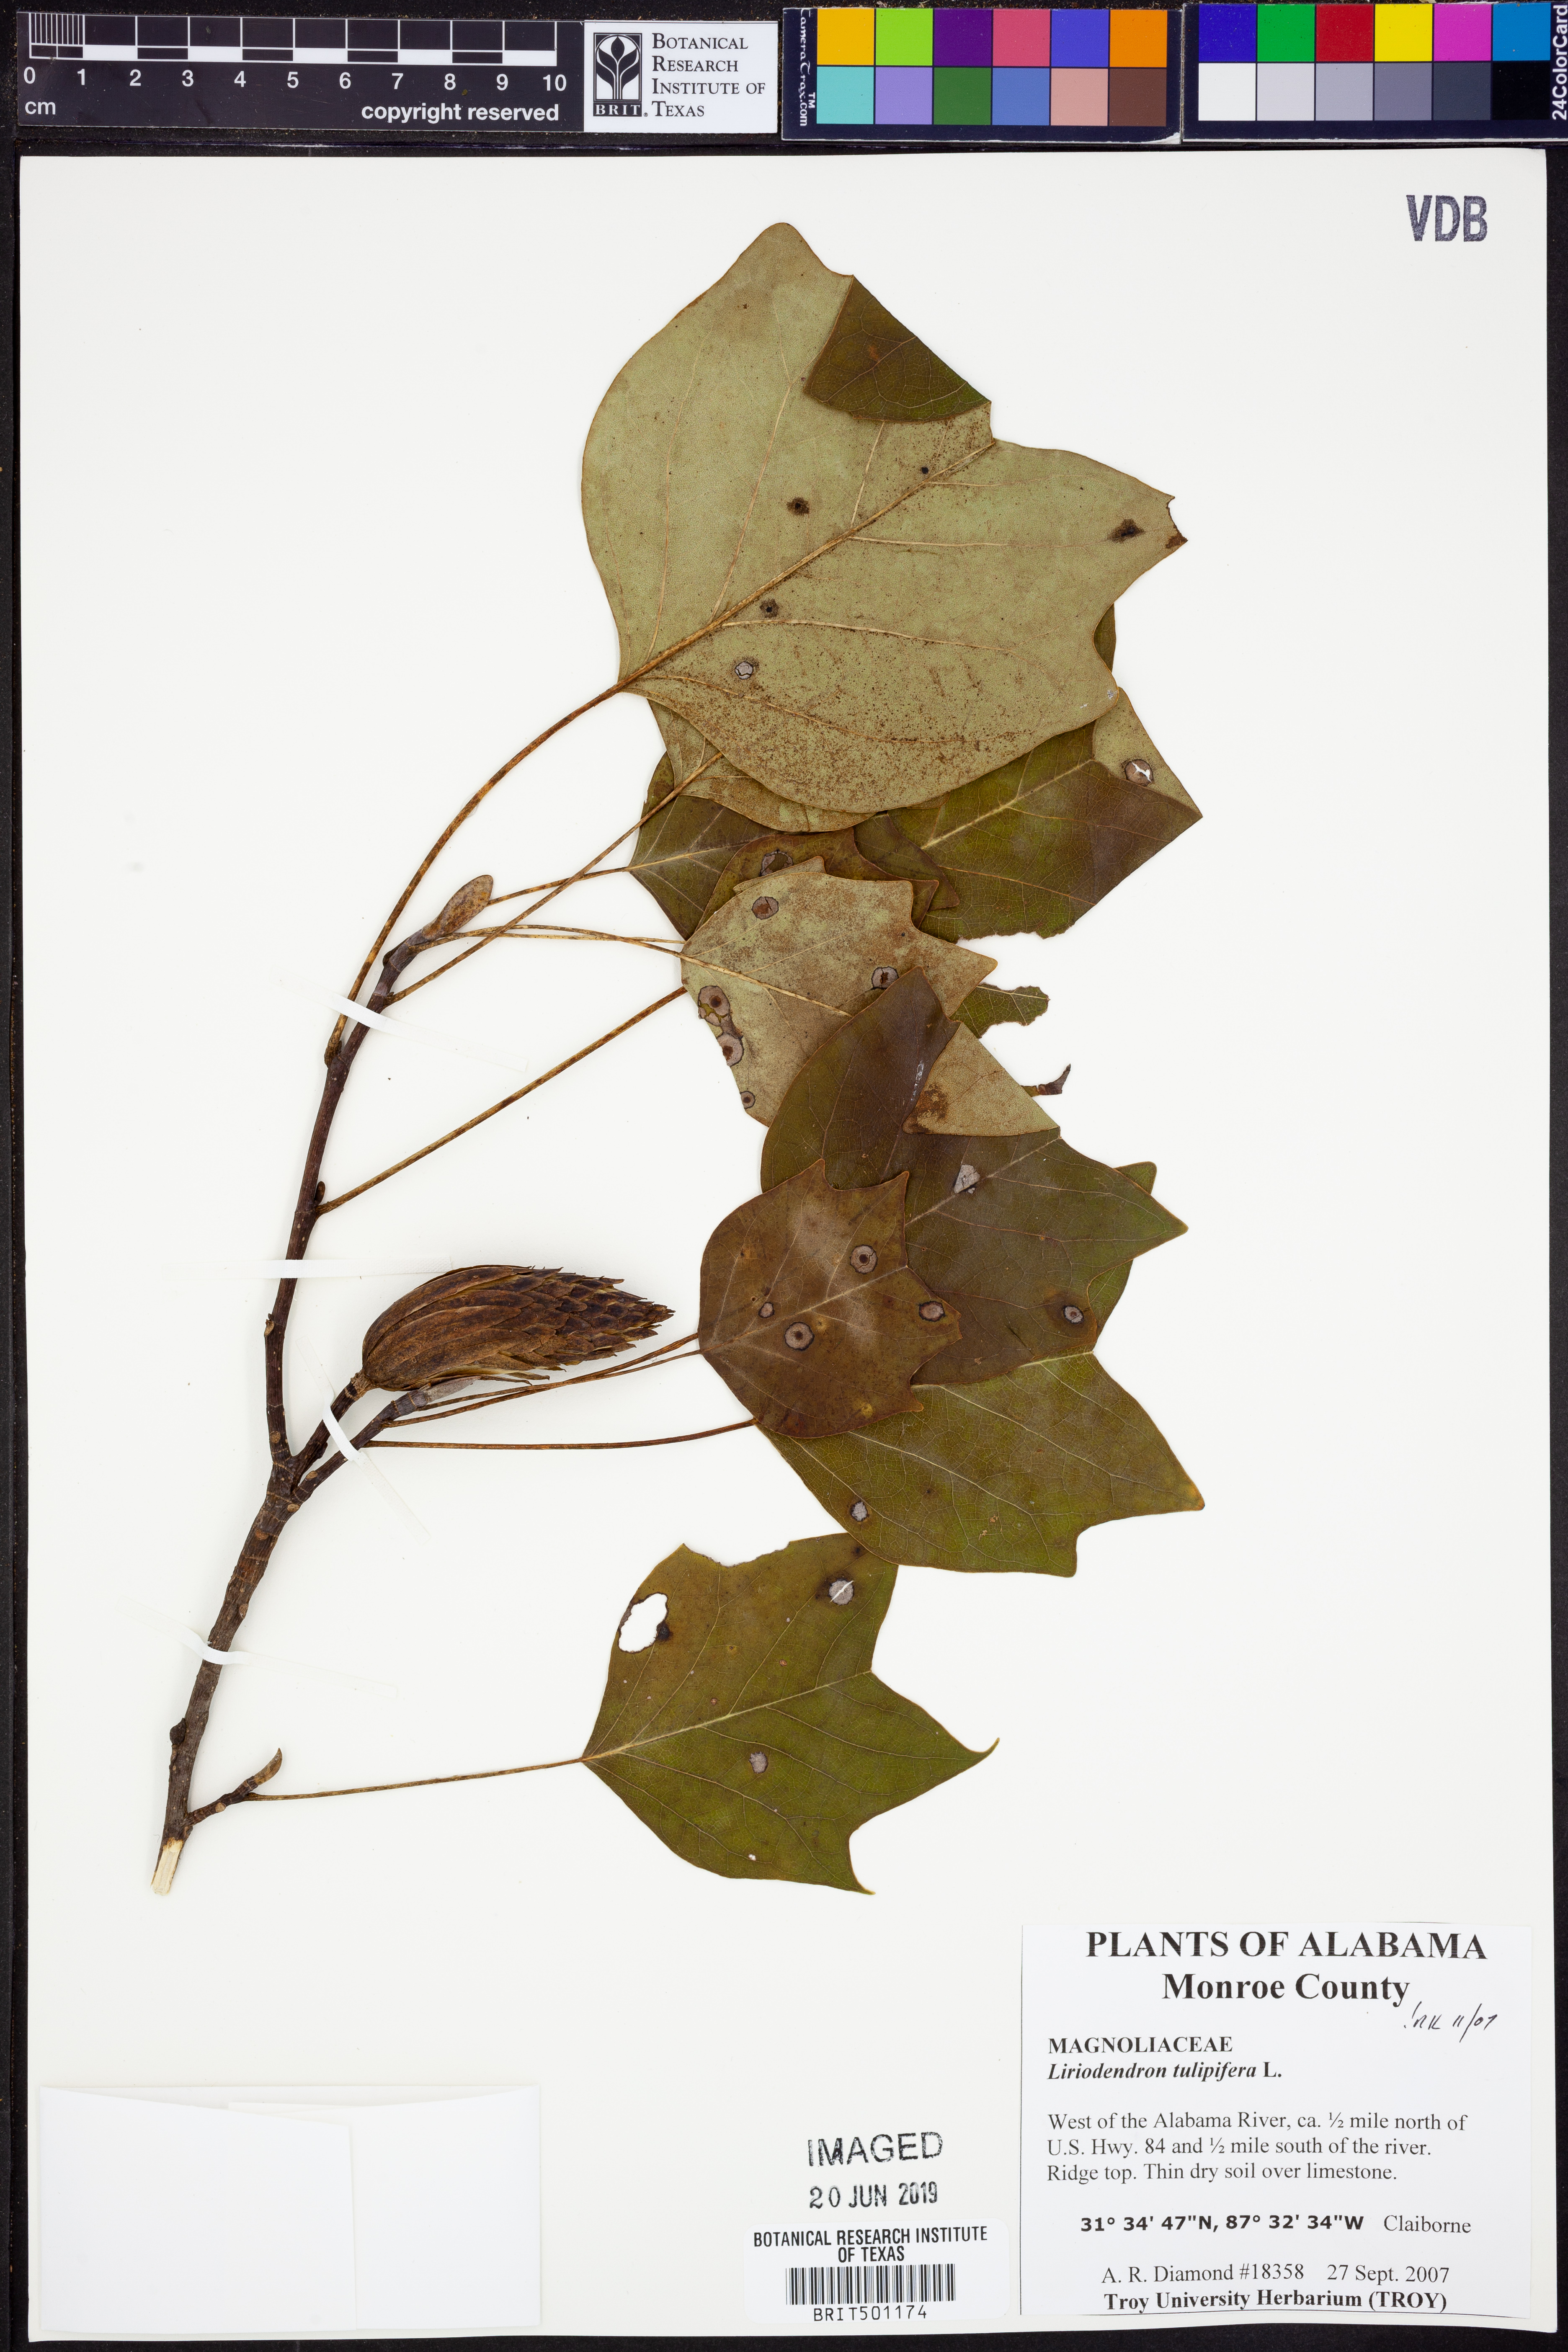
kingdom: Plantae
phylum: Tracheophyta
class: Magnoliopsida
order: Magnoliales
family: Magnoliaceae
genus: Liriodendron
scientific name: Liriodendron tulipifera
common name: Tulip tree
